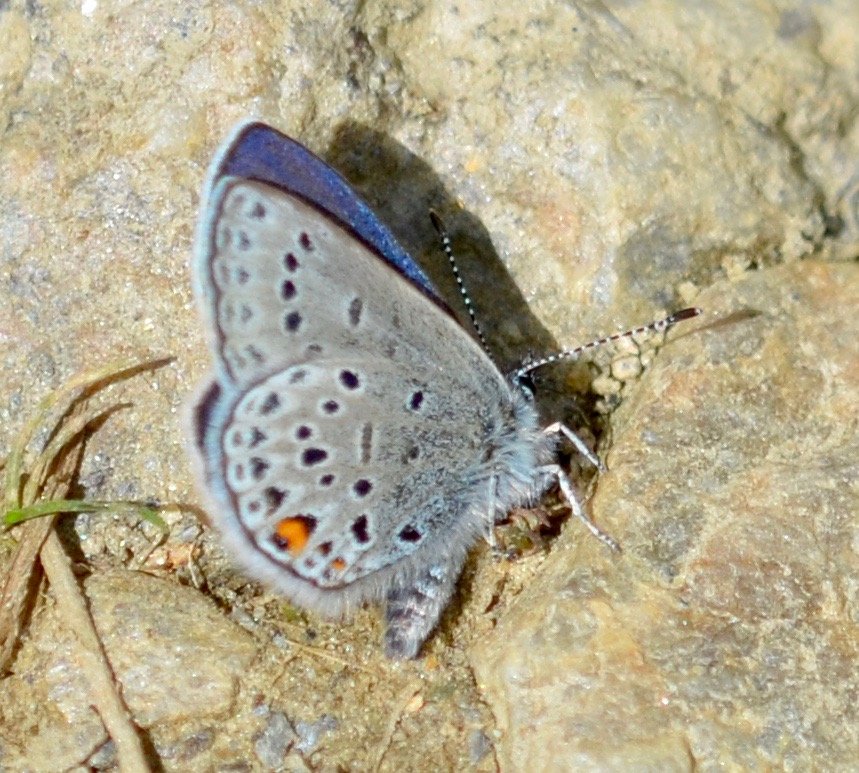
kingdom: Animalia
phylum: Arthropoda
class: Insecta
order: Lepidoptera
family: Lycaenidae
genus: Vacciniina
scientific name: Vacciniina optilete
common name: Cranberry Blue
